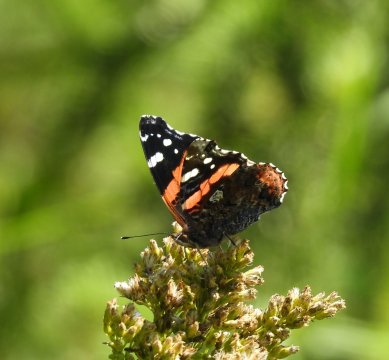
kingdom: Animalia
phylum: Arthropoda
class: Insecta
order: Lepidoptera
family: Nymphalidae
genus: Vanessa
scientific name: Vanessa atalanta
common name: Red Admiral
